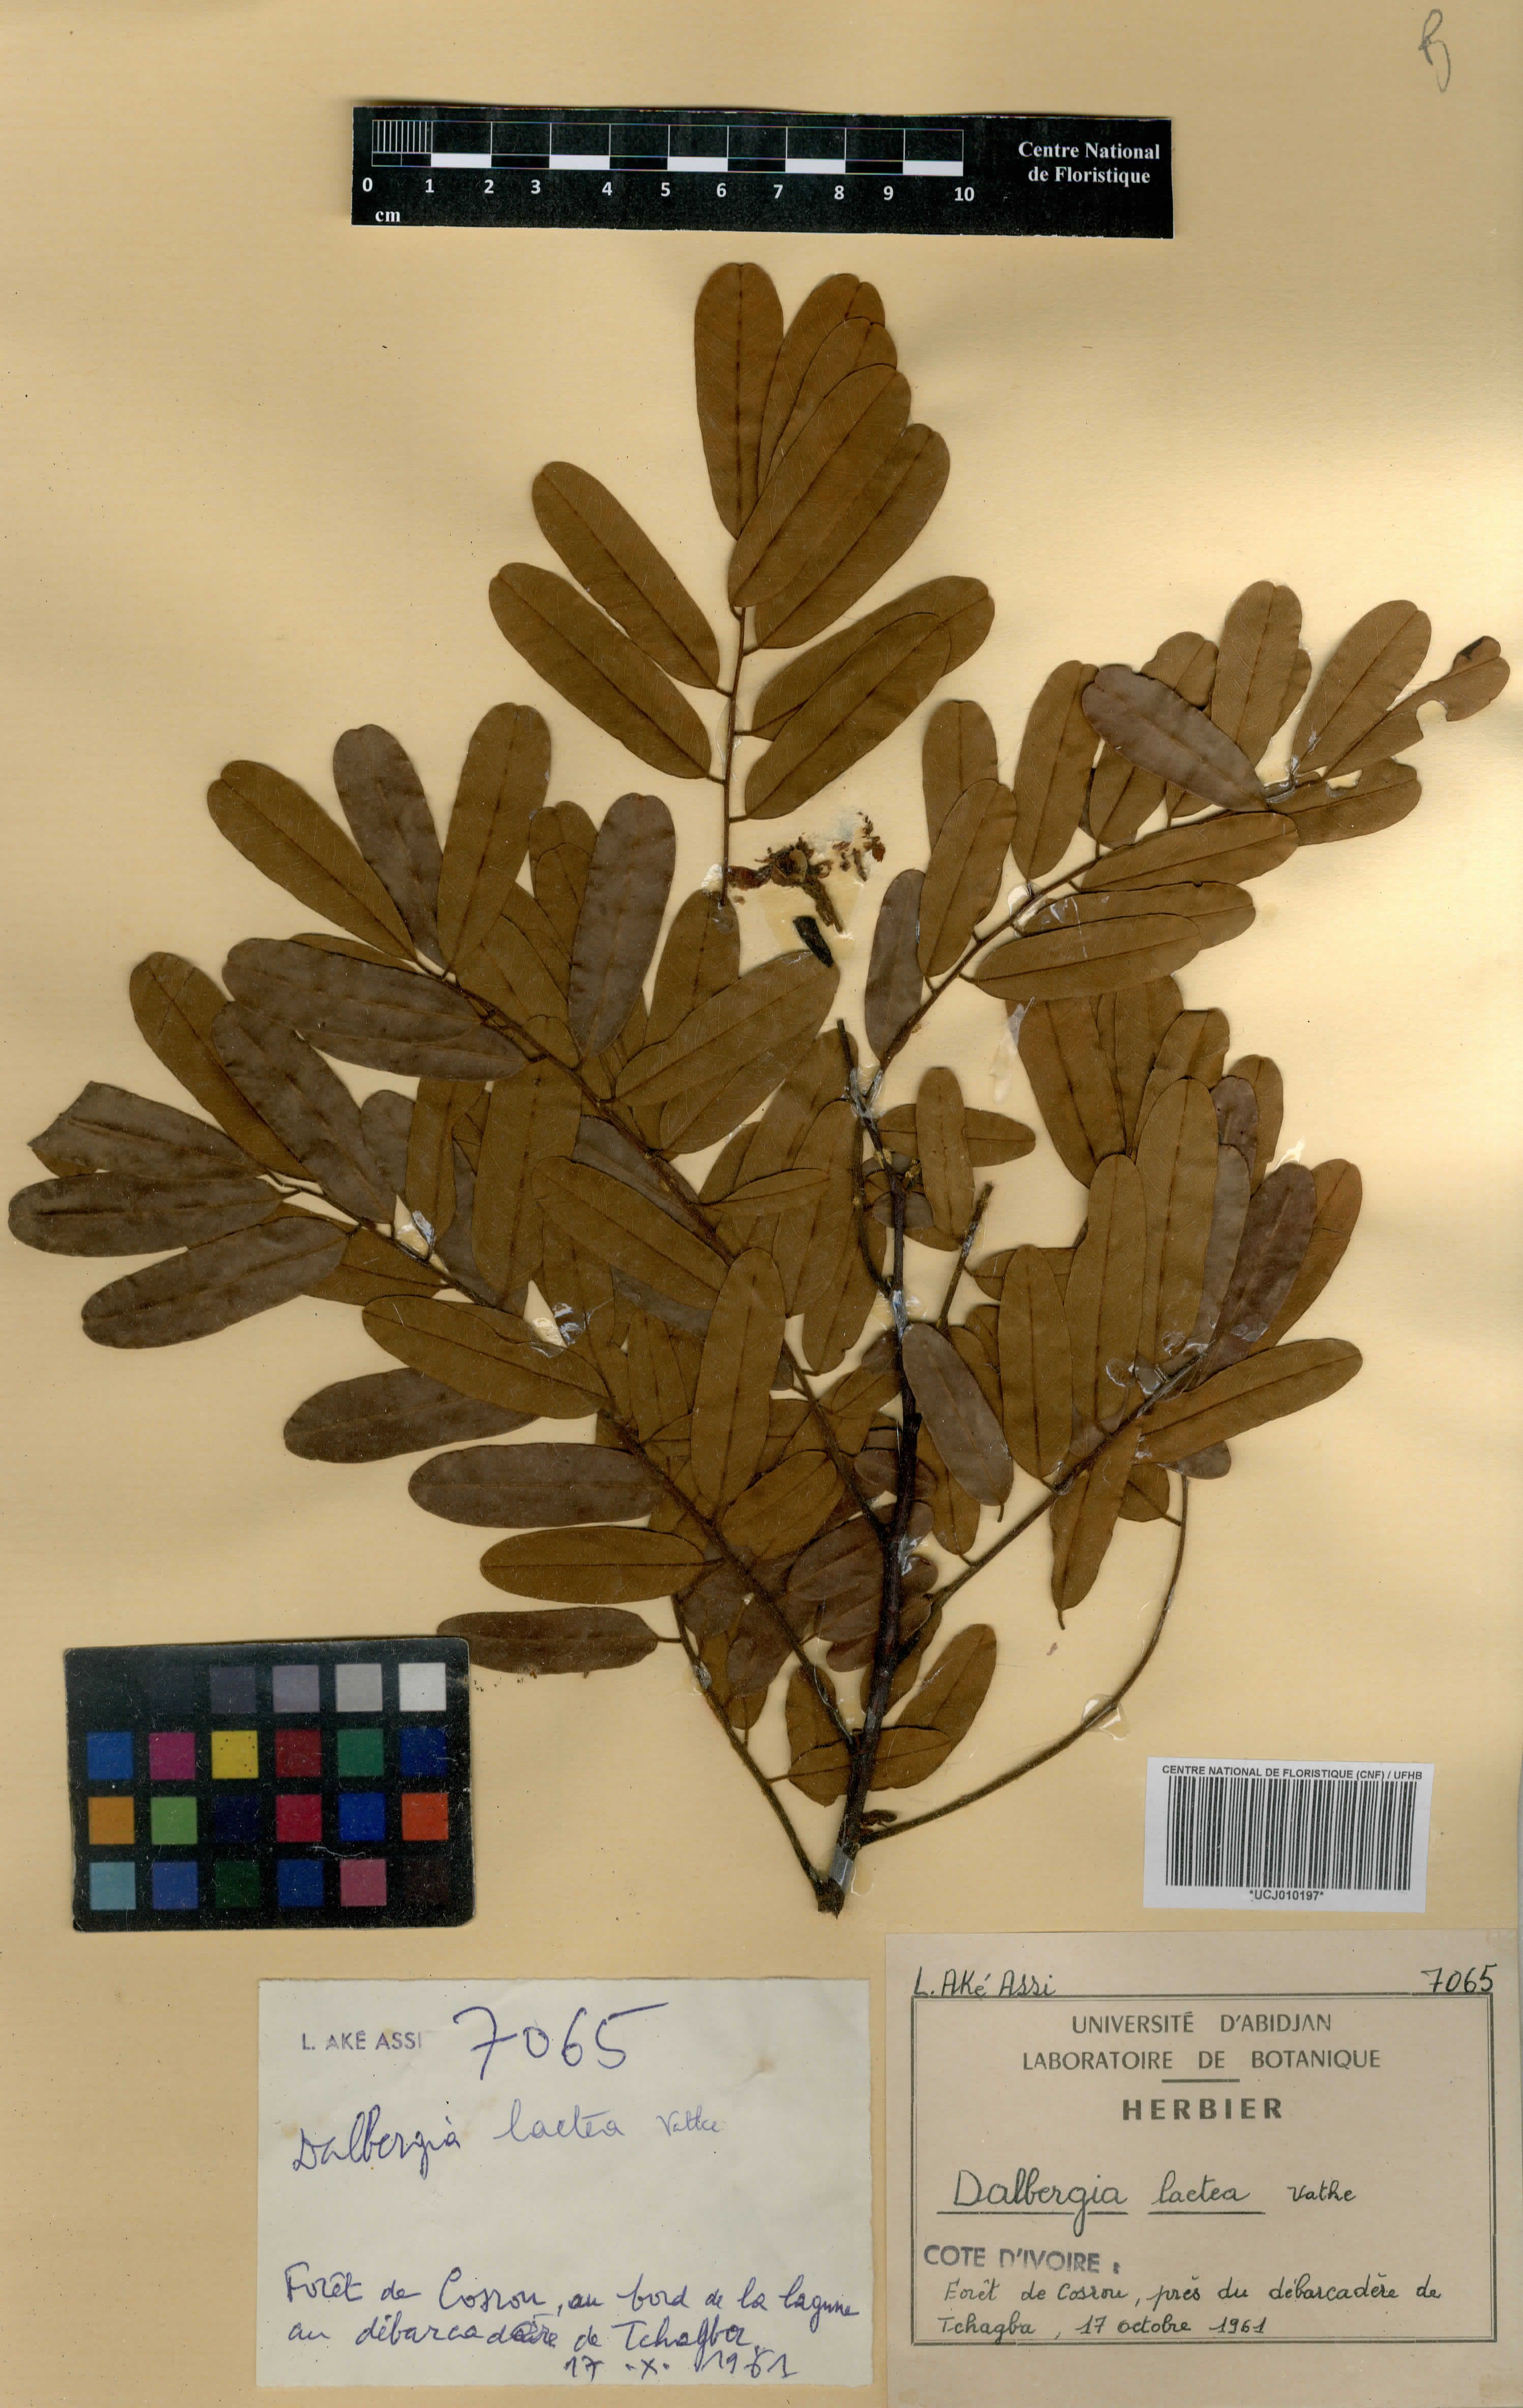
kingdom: Plantae
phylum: Tracheophyta
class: Magnoliopsida
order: Fabales
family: Fabaceae
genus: Dalbergia
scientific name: Dalbergia lactea
